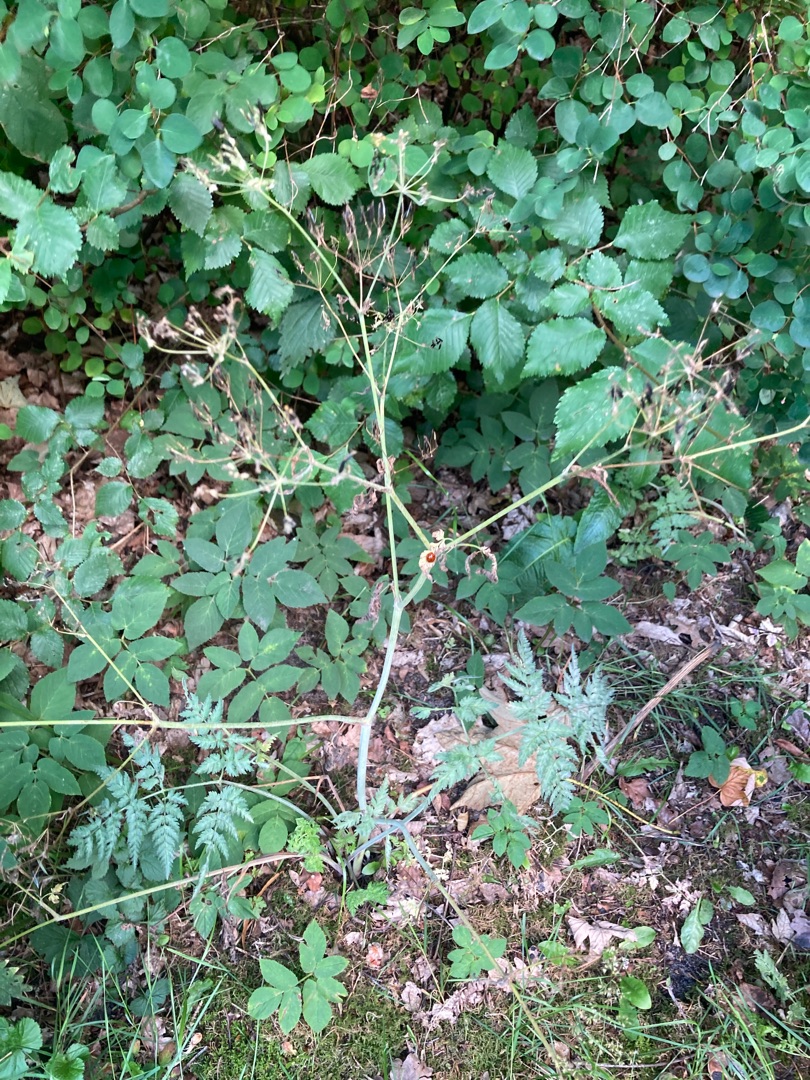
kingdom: Plantae
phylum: Tracheophyta
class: Magnoliopsida
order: Apiales
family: Apiaceae
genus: Anthriscus
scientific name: Anthriscus sylvestris
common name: Vild kørvel
